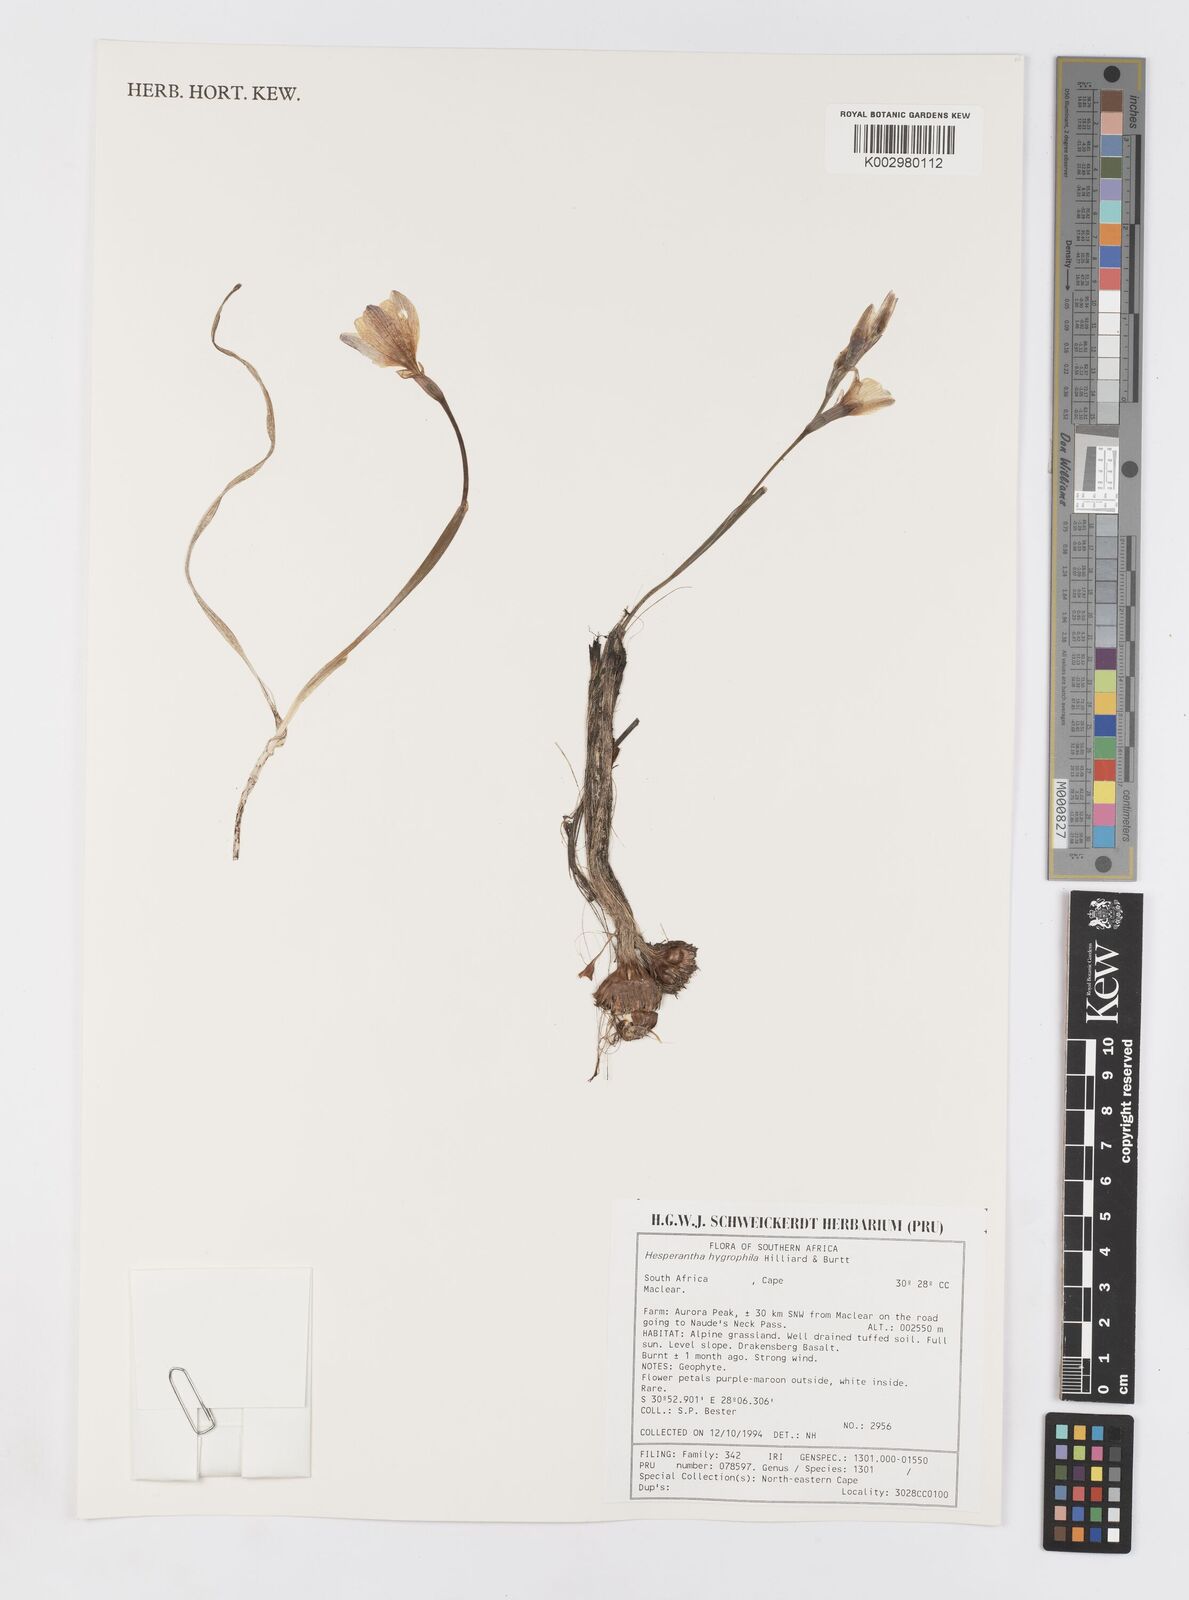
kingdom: Plantae
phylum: Tracheophyta
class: Liliopsida
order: Asparagales
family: Iridaceae
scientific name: Iridaceae
